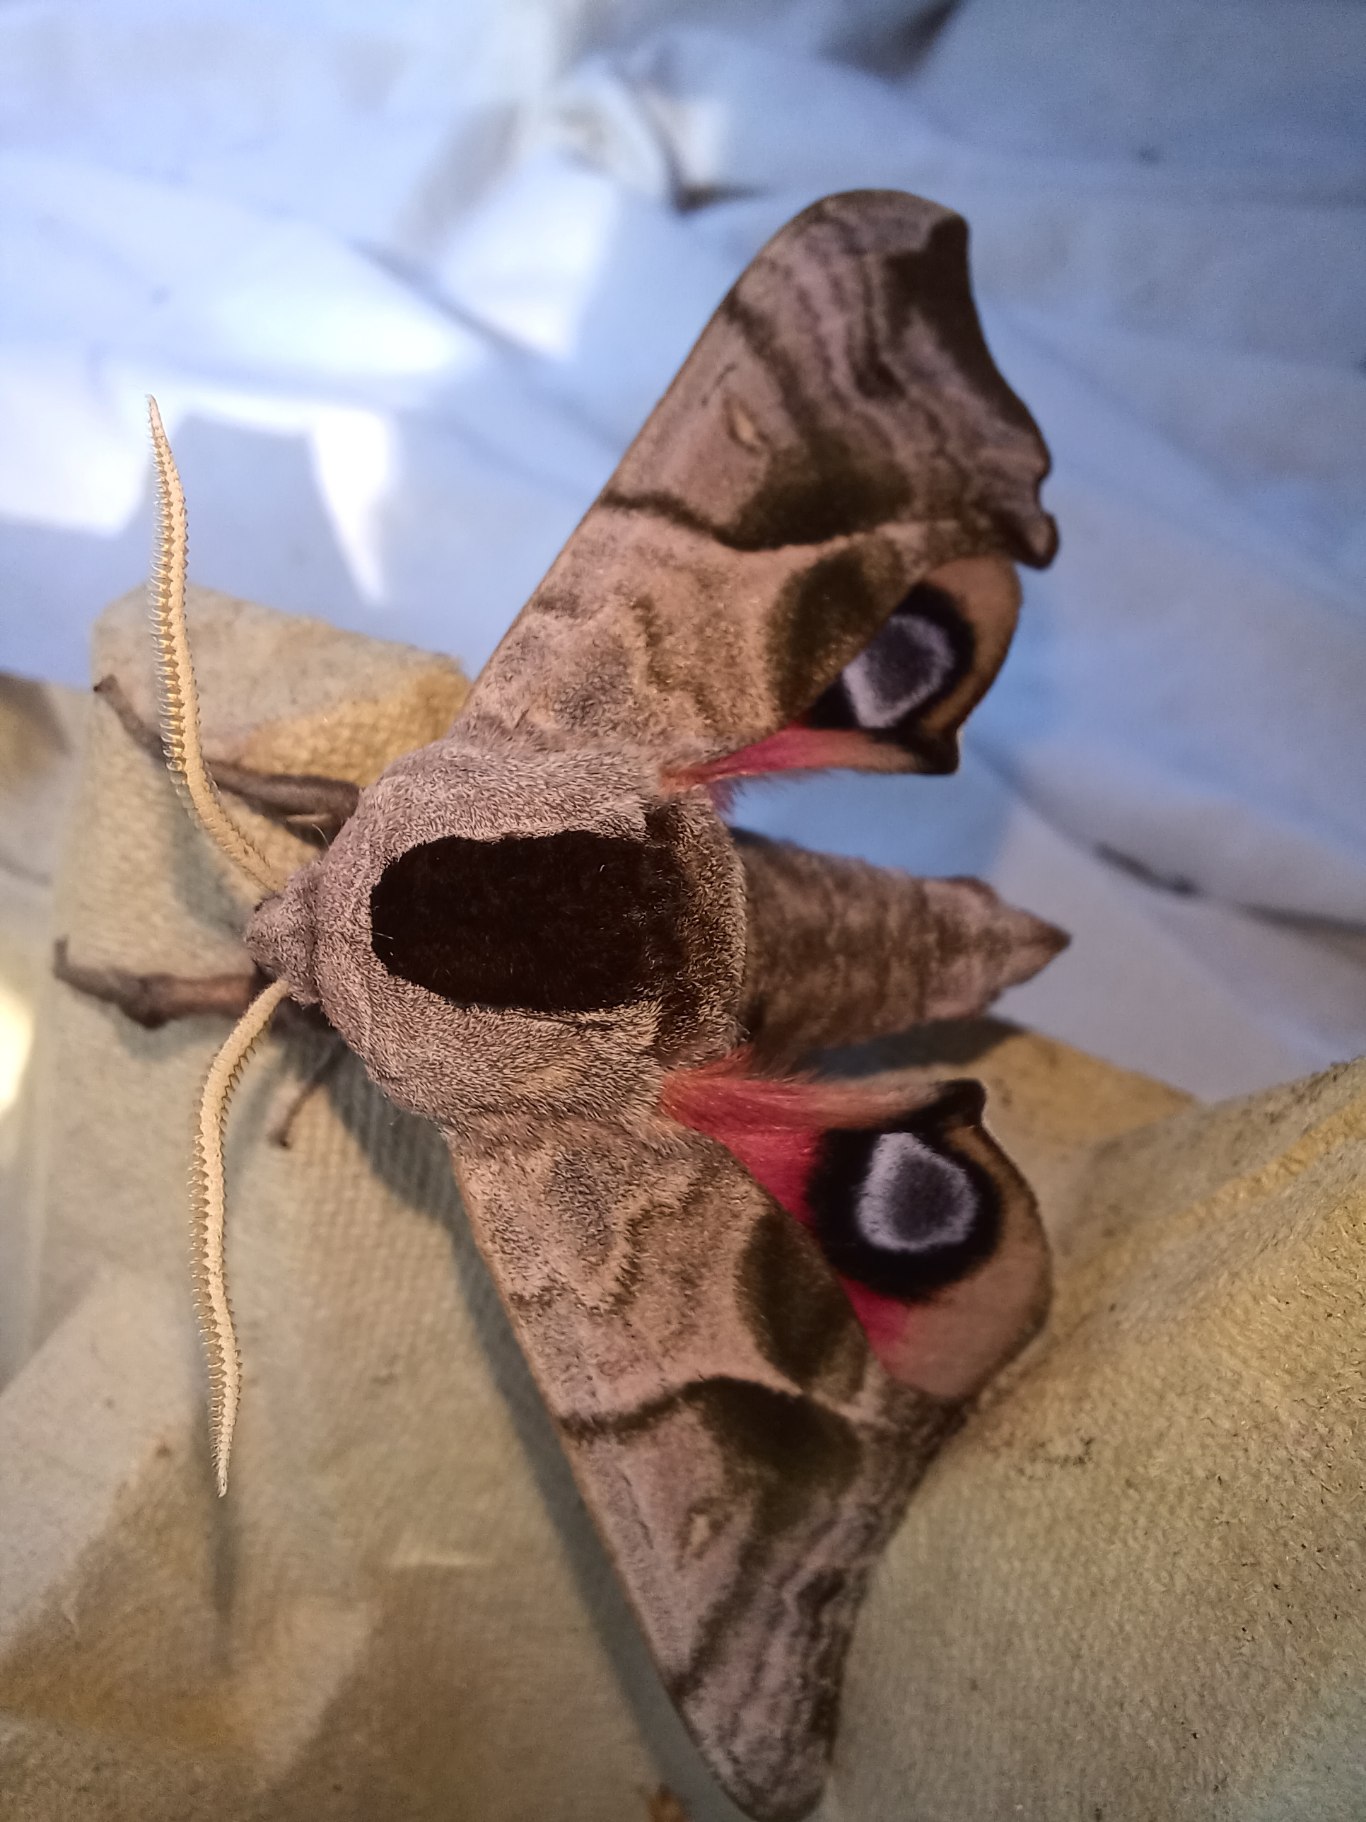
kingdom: Animalia
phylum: Arthropoda
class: Insecta
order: Lepidoptera
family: Sphingidae
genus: Smerinthus
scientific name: Smerinthus ocellata
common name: Aftenpåfugleøje
